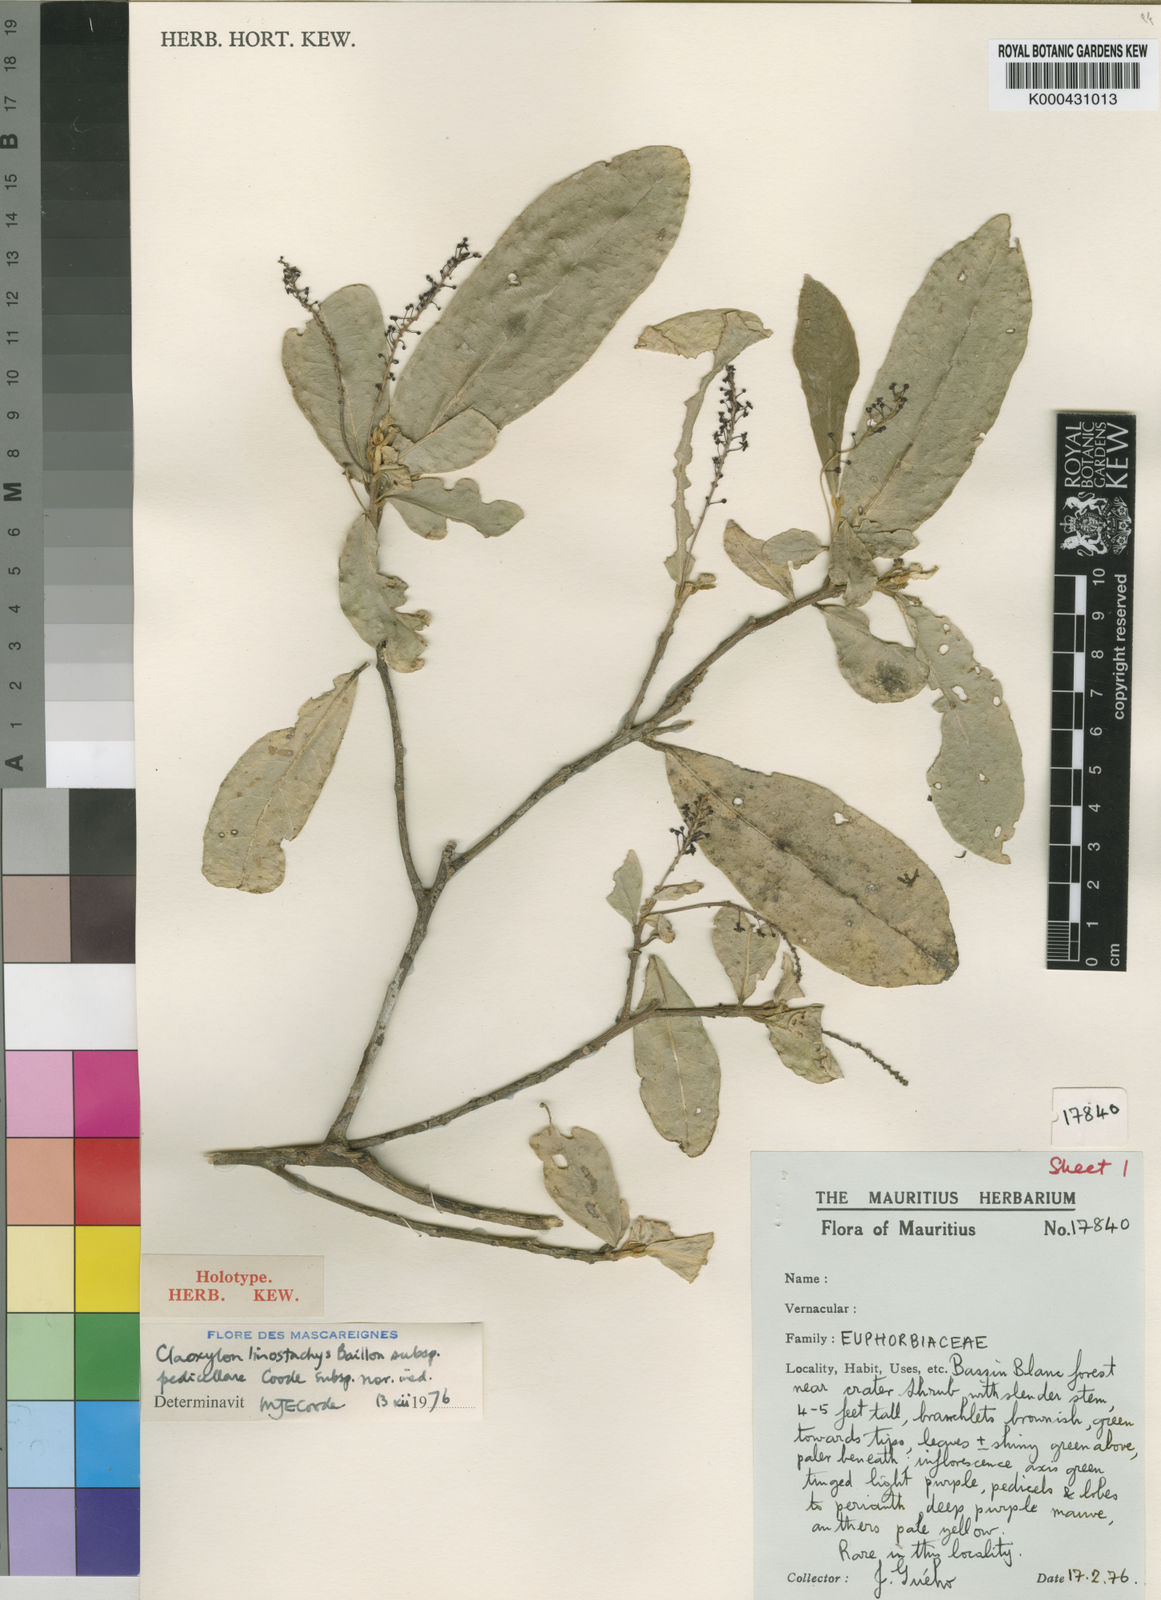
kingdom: Plantae
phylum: Tracheophyta
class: Magnoliopsida
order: Malpighiales
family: Euphorbiaceae
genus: Claoxylon
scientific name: Claoxylon linostachys
